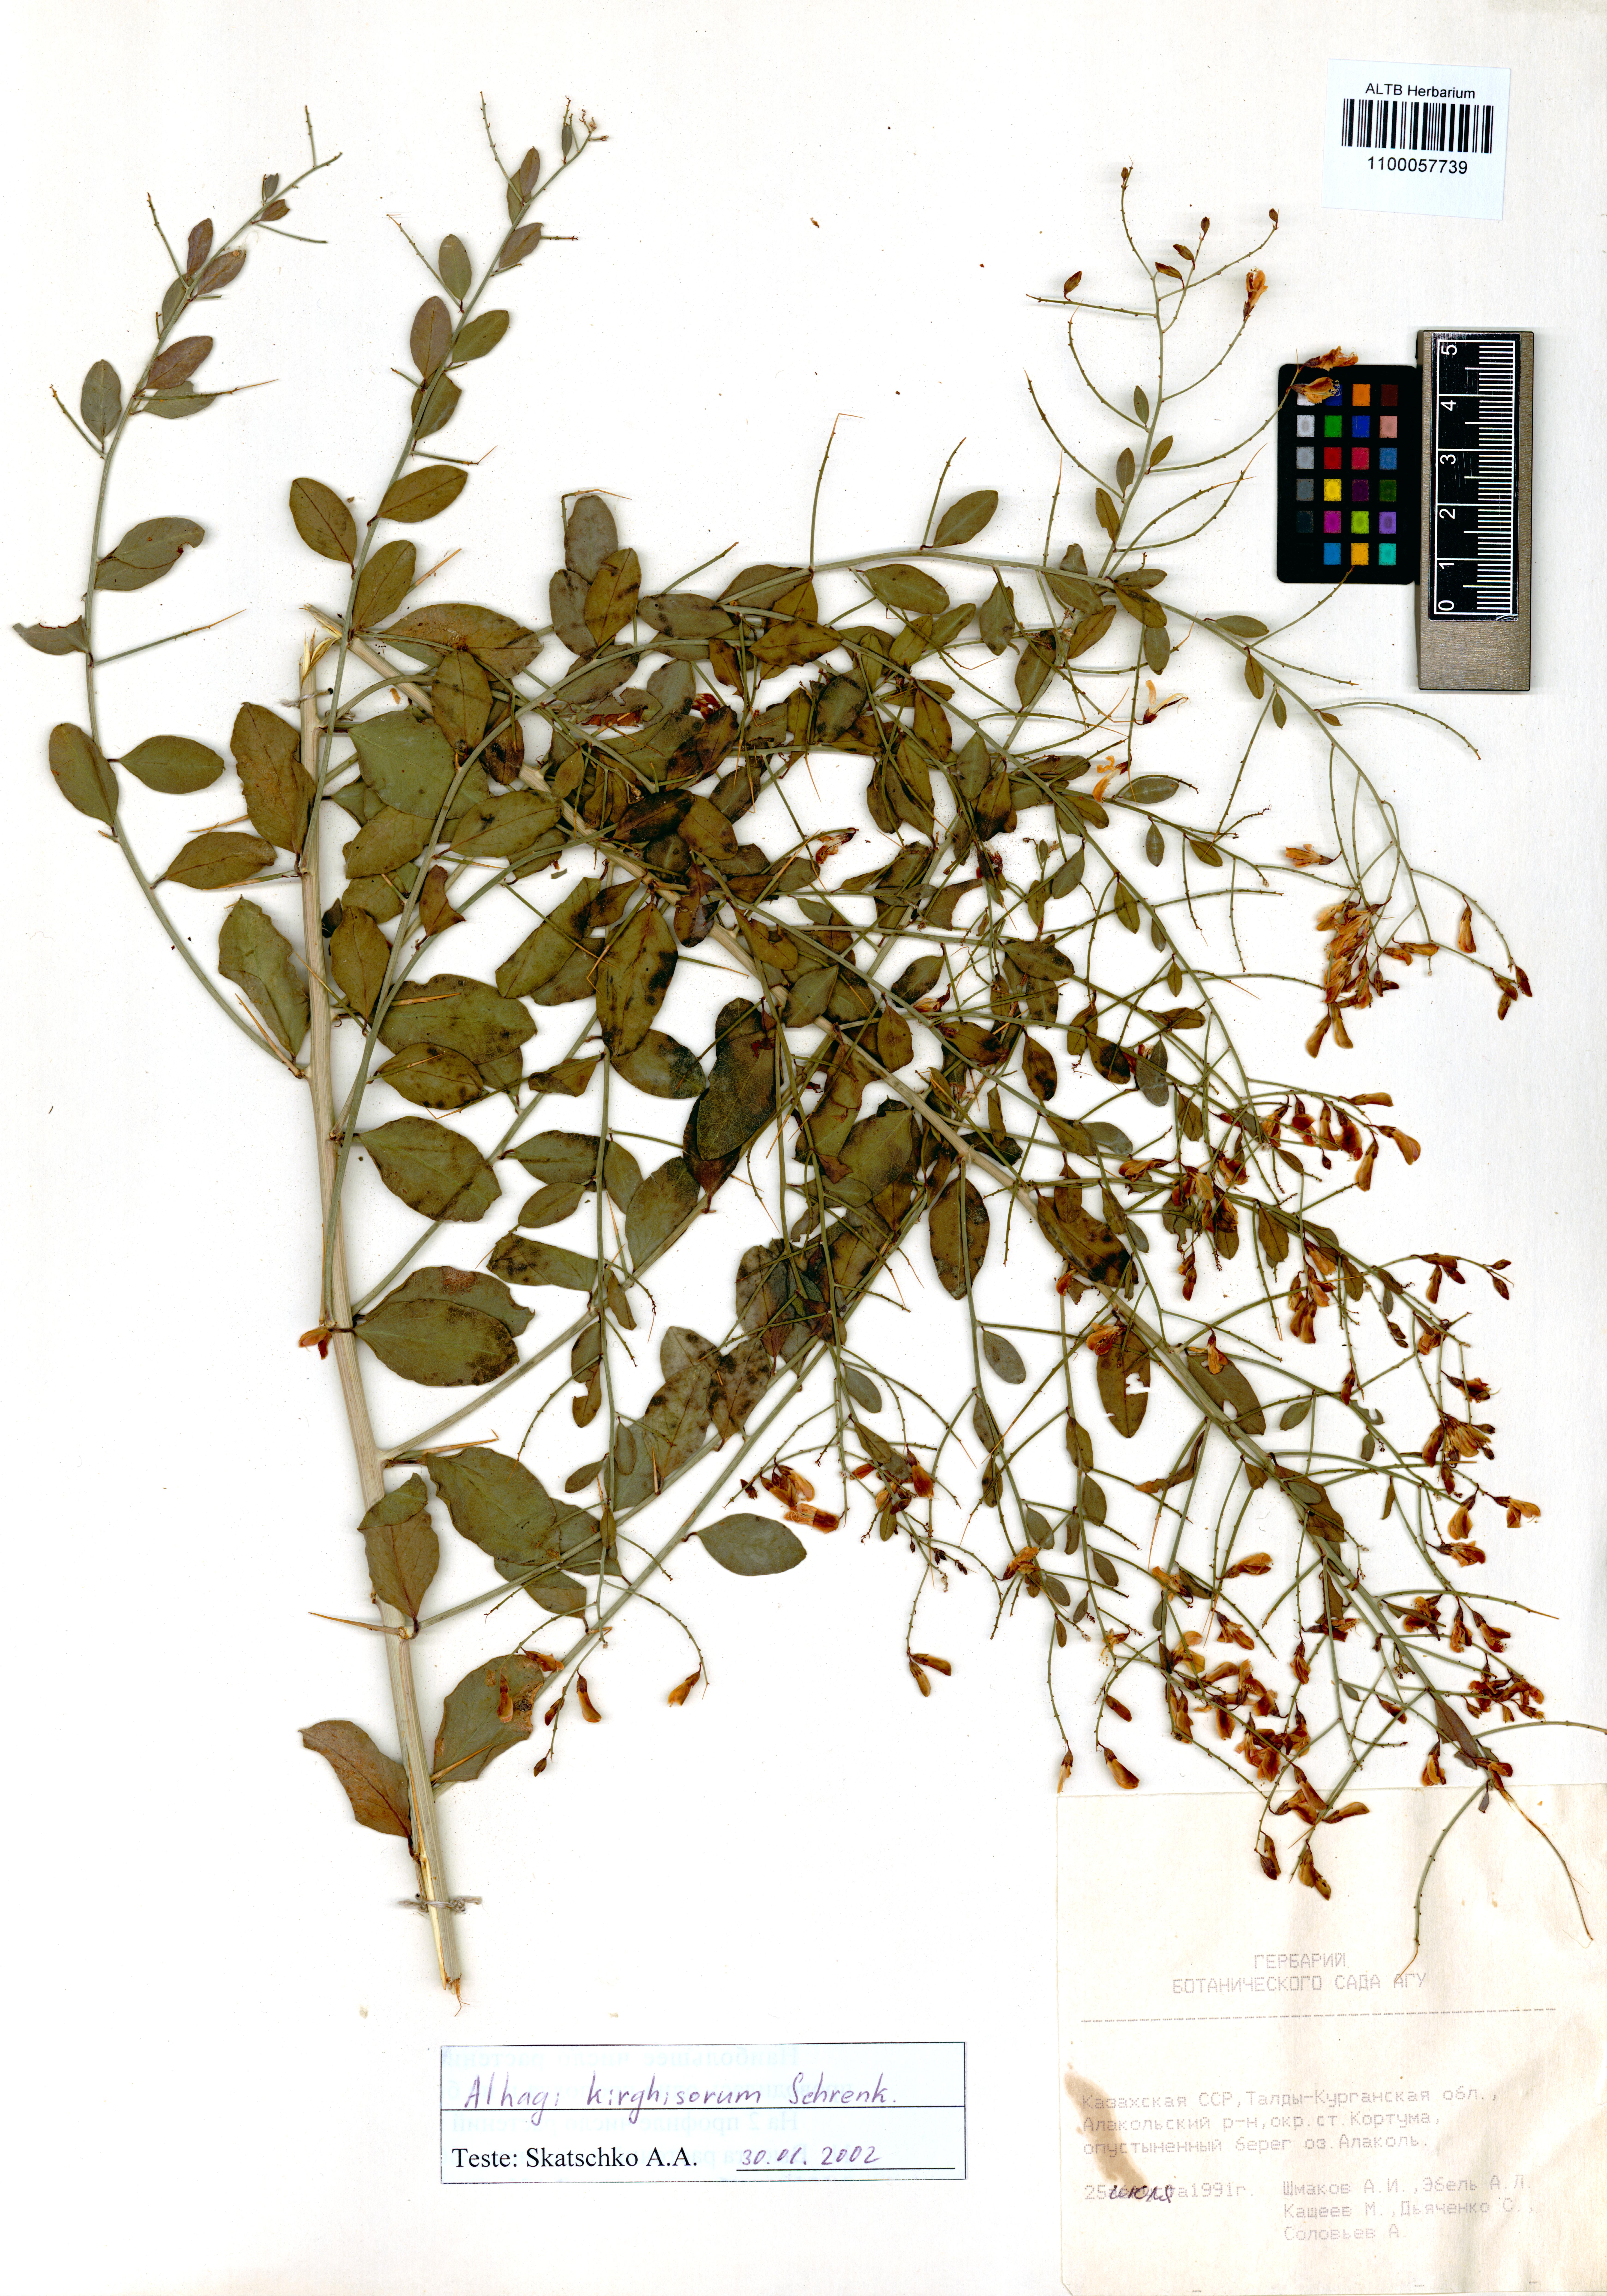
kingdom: Plantae
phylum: Tracheophyta
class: Magnoliopsida
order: Fabales
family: Fabaceae
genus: Alhagi
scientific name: Alhagi kirghisorum
